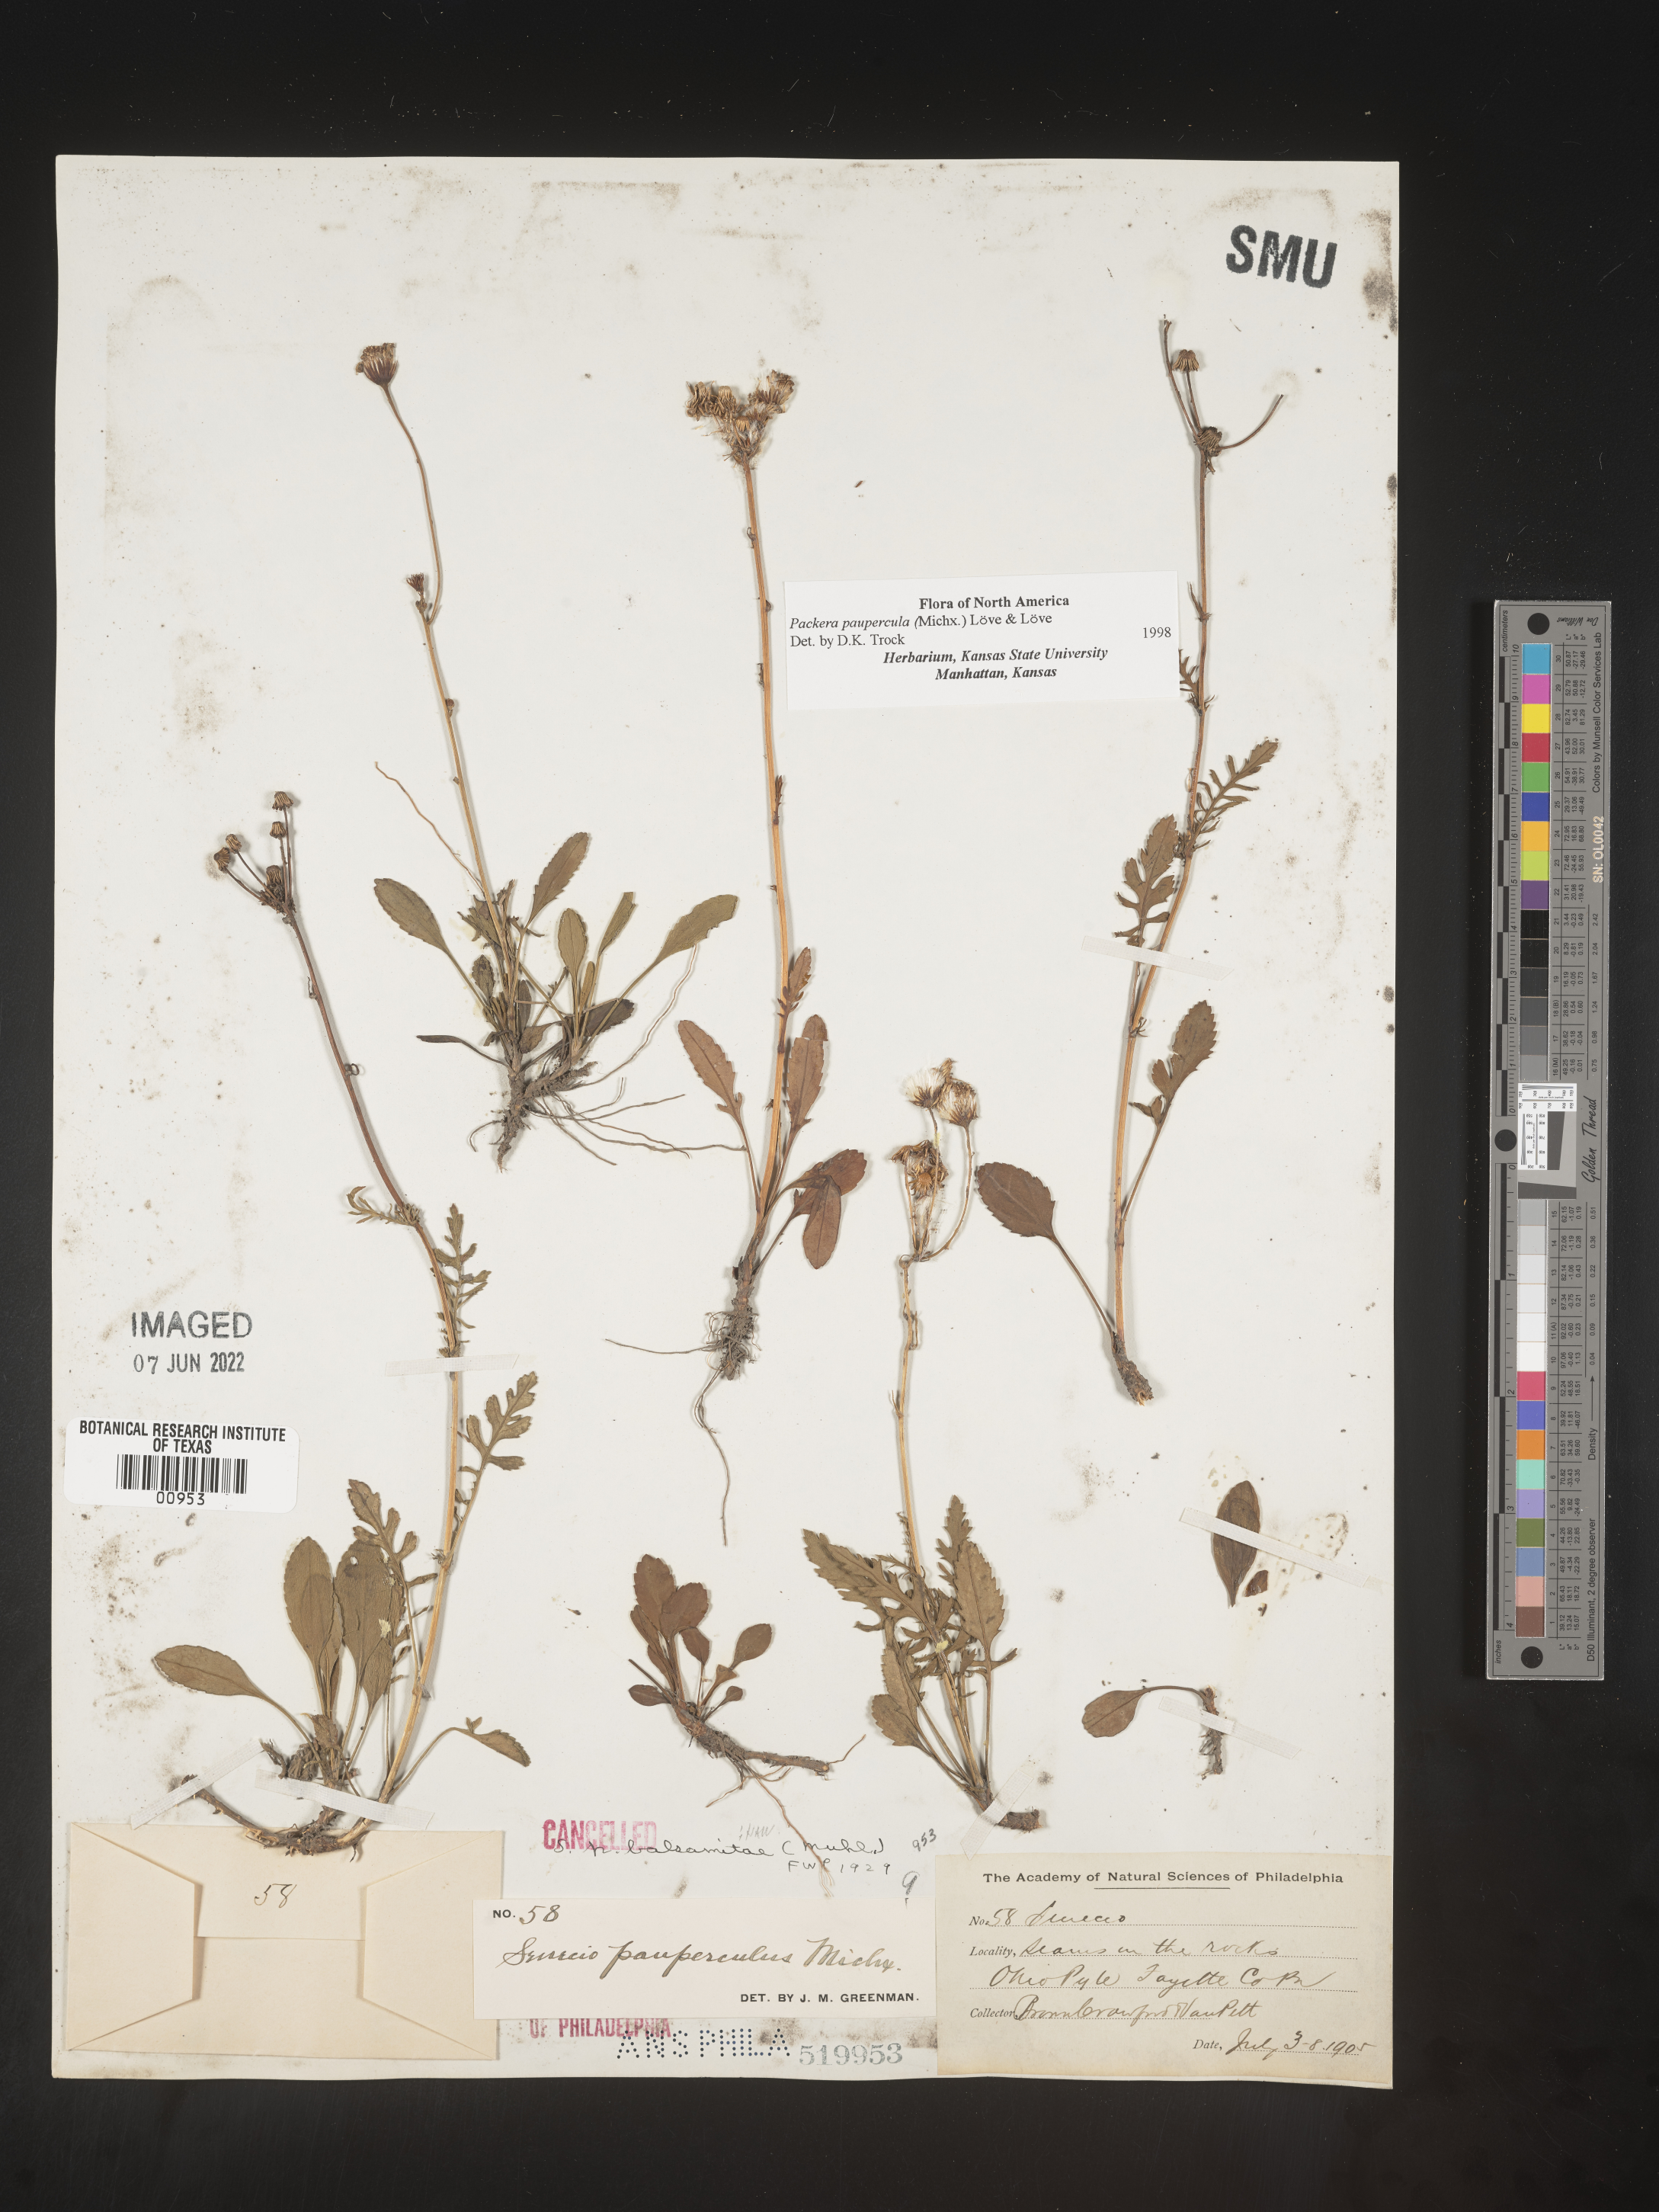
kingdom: Plantae
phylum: Tracheophyta
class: Magnoliopsida
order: Asterales
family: Asteraceae
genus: Packera
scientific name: Packera paupercula
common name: Balsam groundsel
